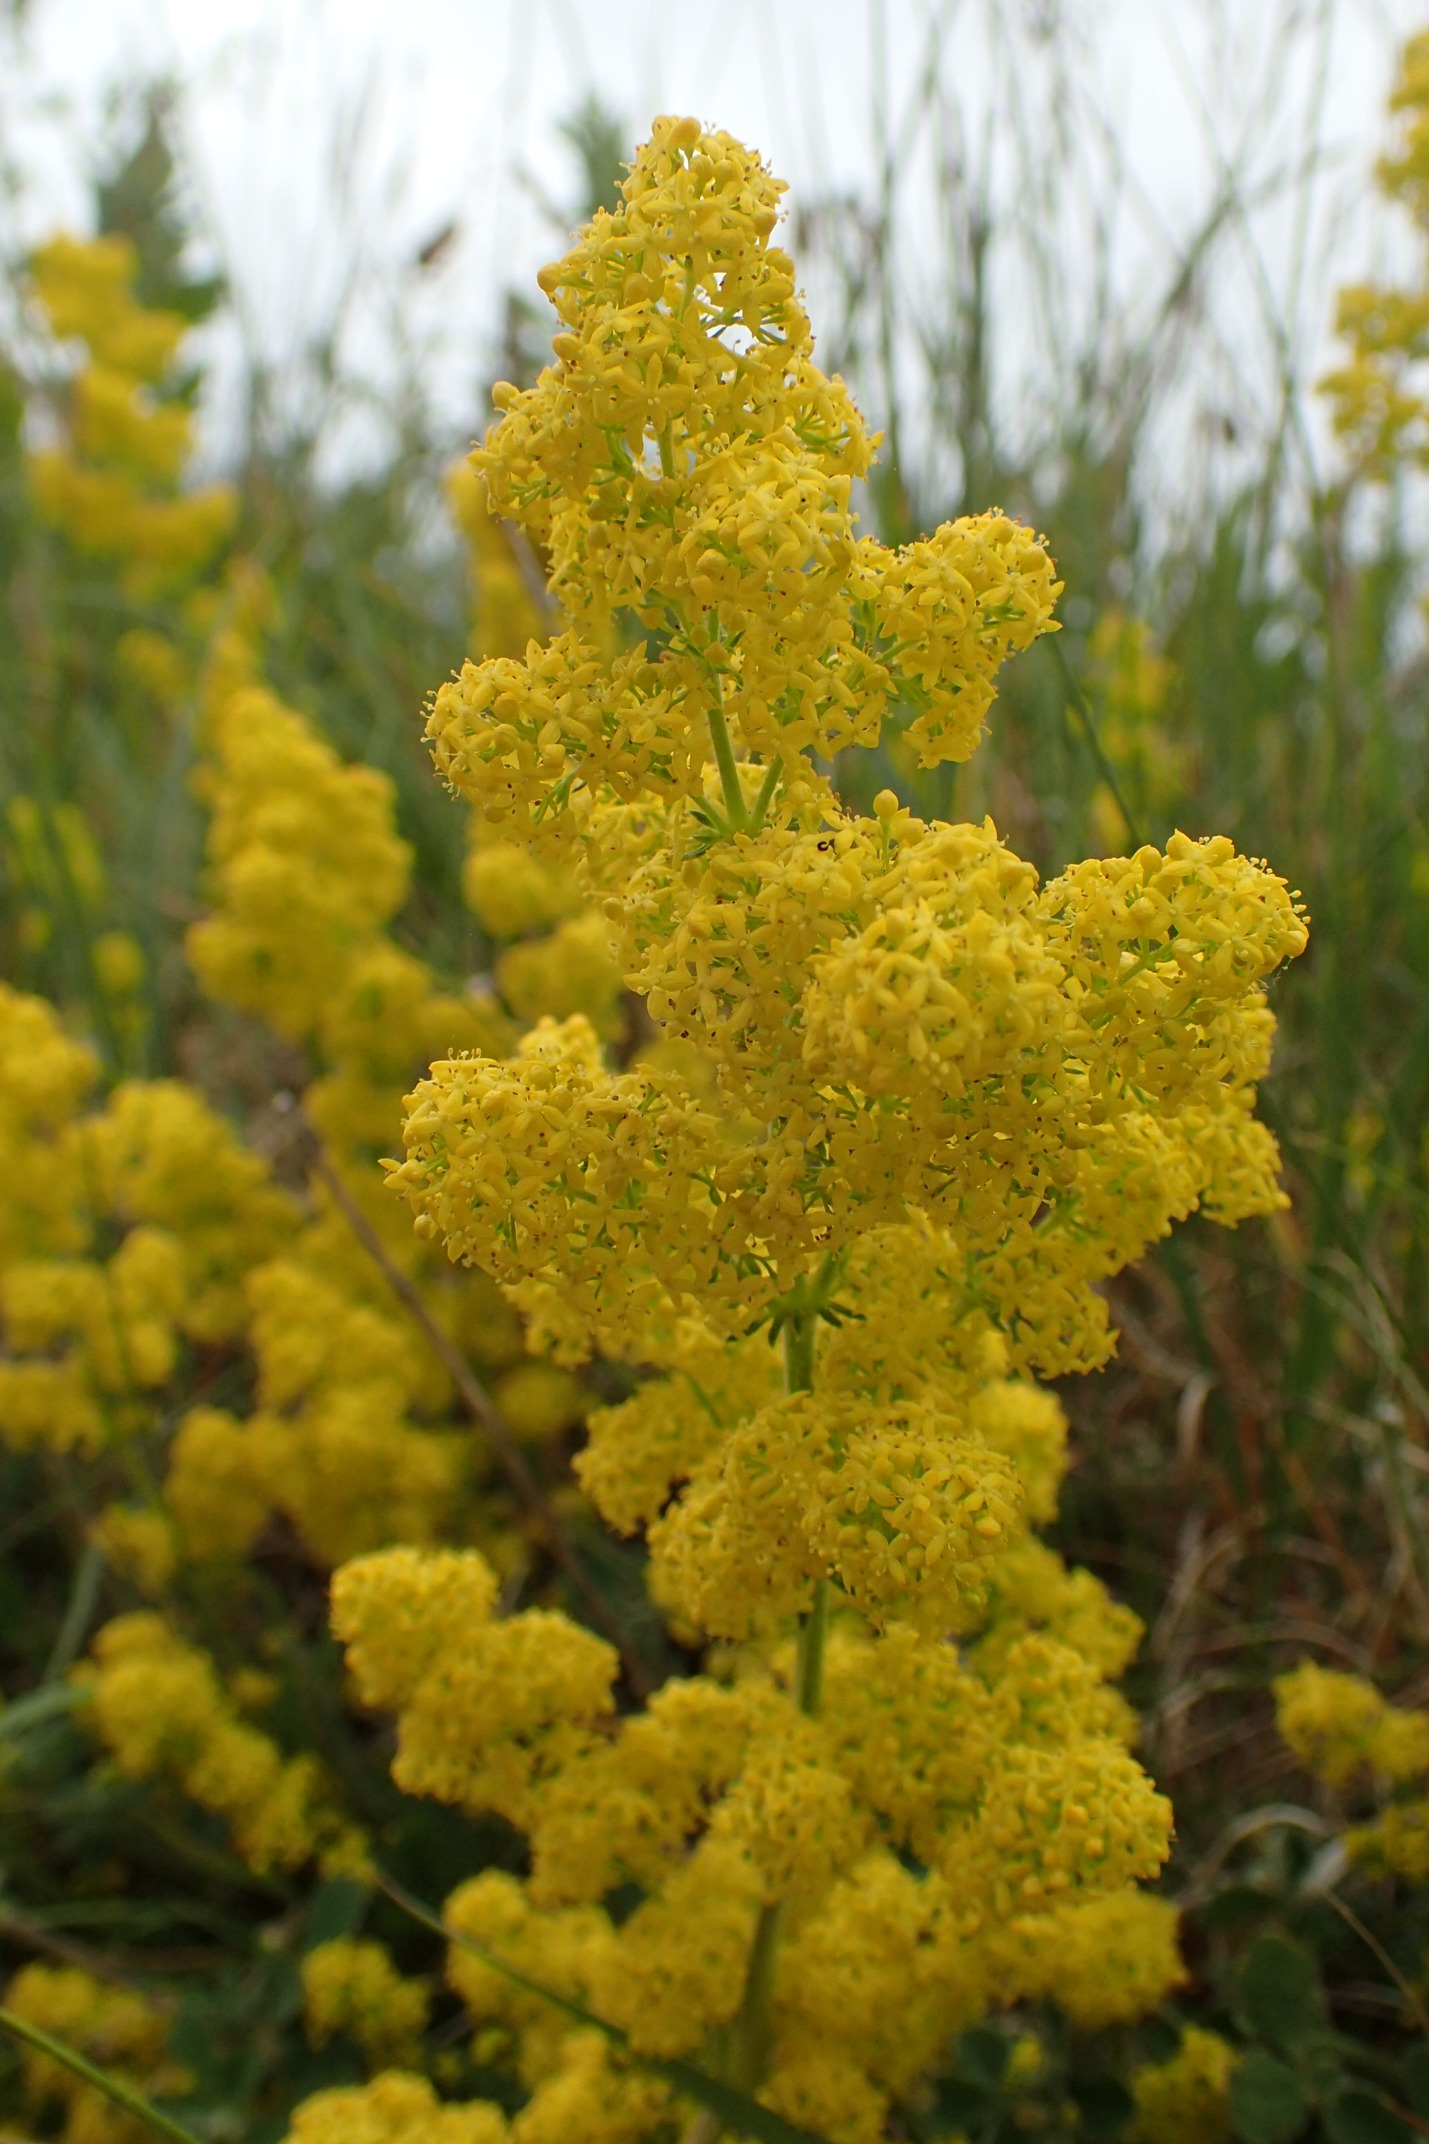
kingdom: Plantae
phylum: Tracheophyta
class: Magnoliopsida
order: Gentianales
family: Rubiaceae
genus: Galium
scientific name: Galium verum
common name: Gul snerre
